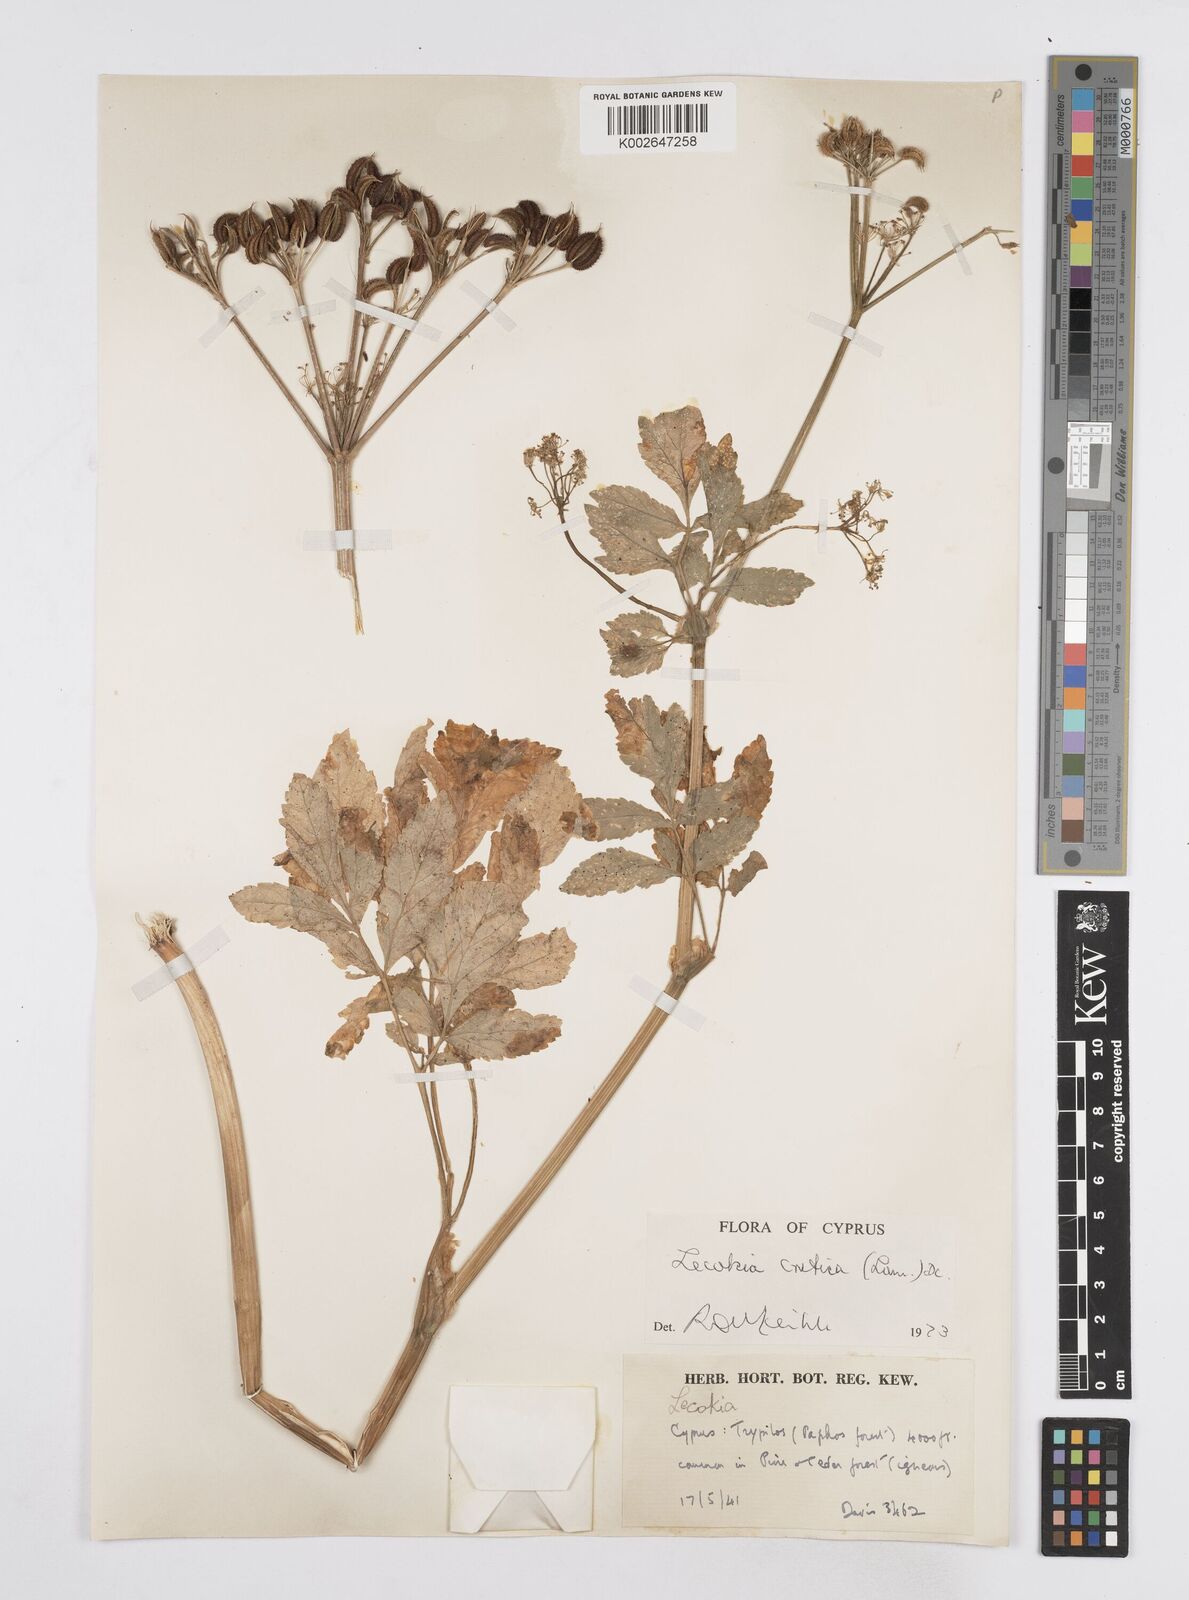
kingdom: Plantae
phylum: Tracheophyta
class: Magnoliopsida
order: Apiales
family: Apiaceae
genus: Lecokia
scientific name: Lecokia cretica
